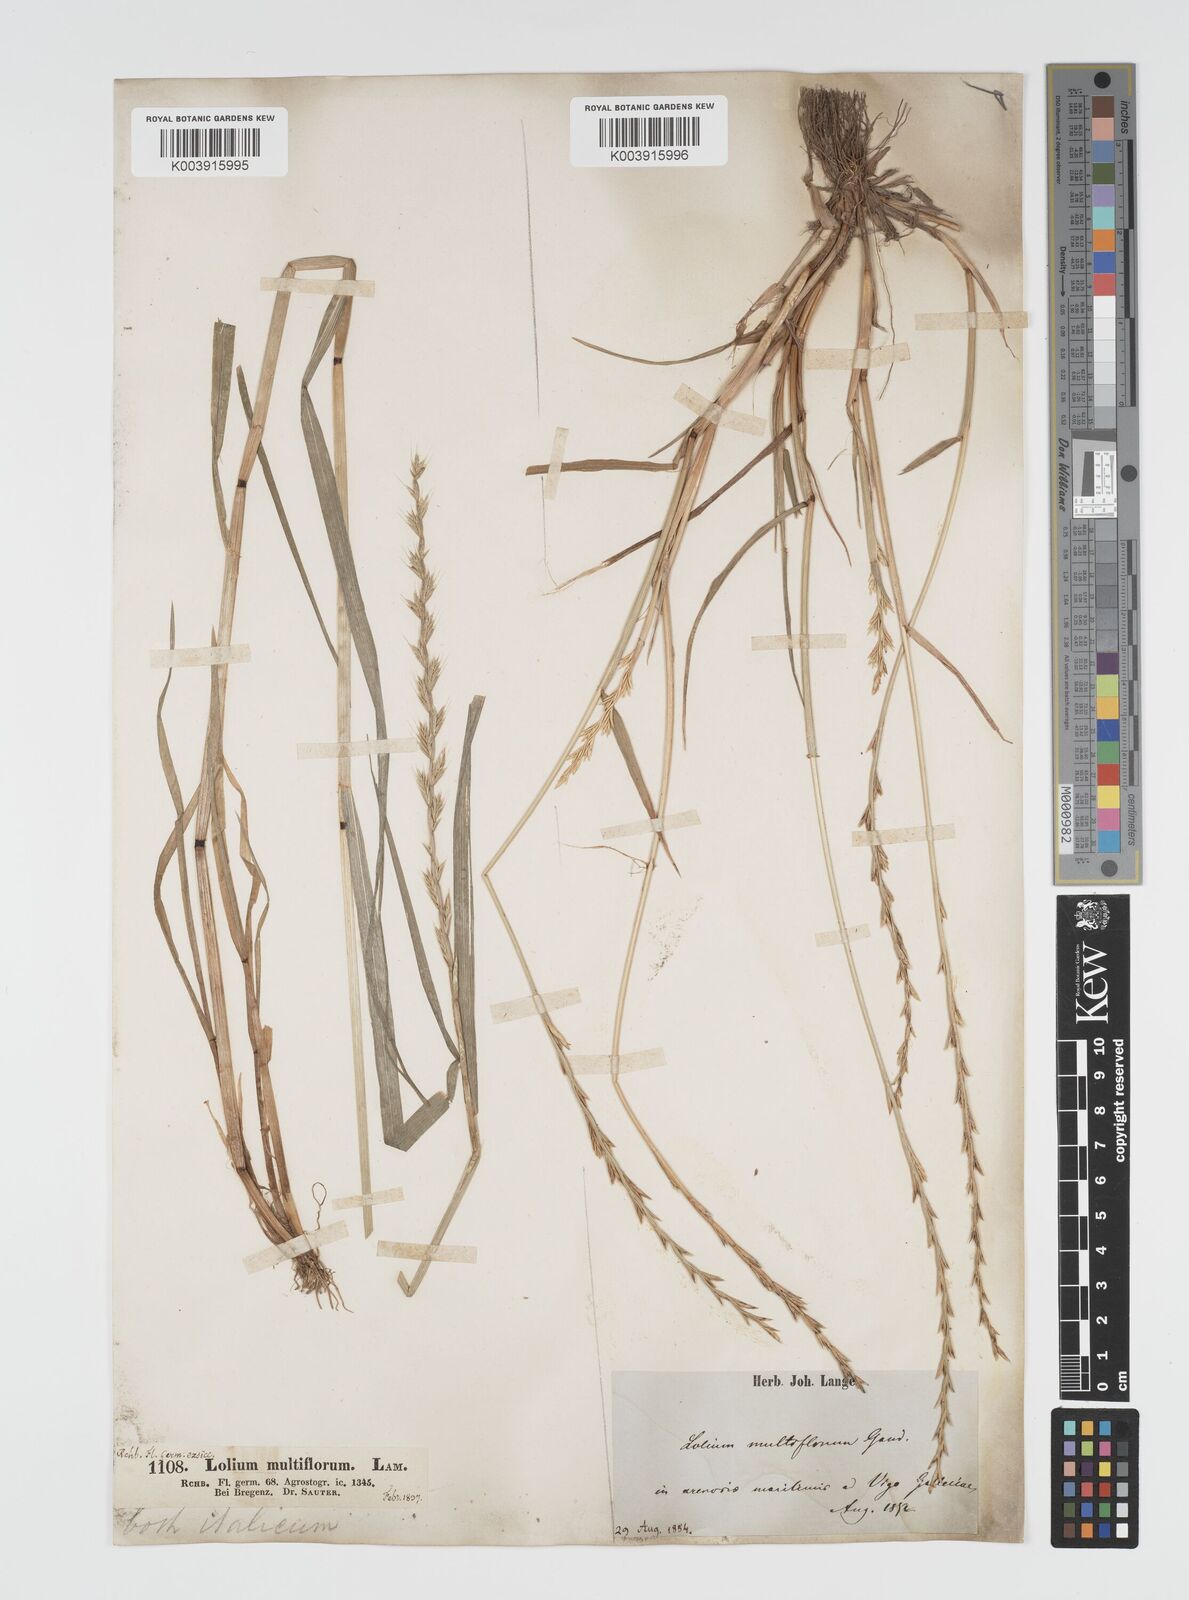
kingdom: Plantae
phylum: Tracheophyta
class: Liliopsida
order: Poales
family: Poaceae
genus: Lolium
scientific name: Lolium multiflorum
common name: Annual ryegrass
